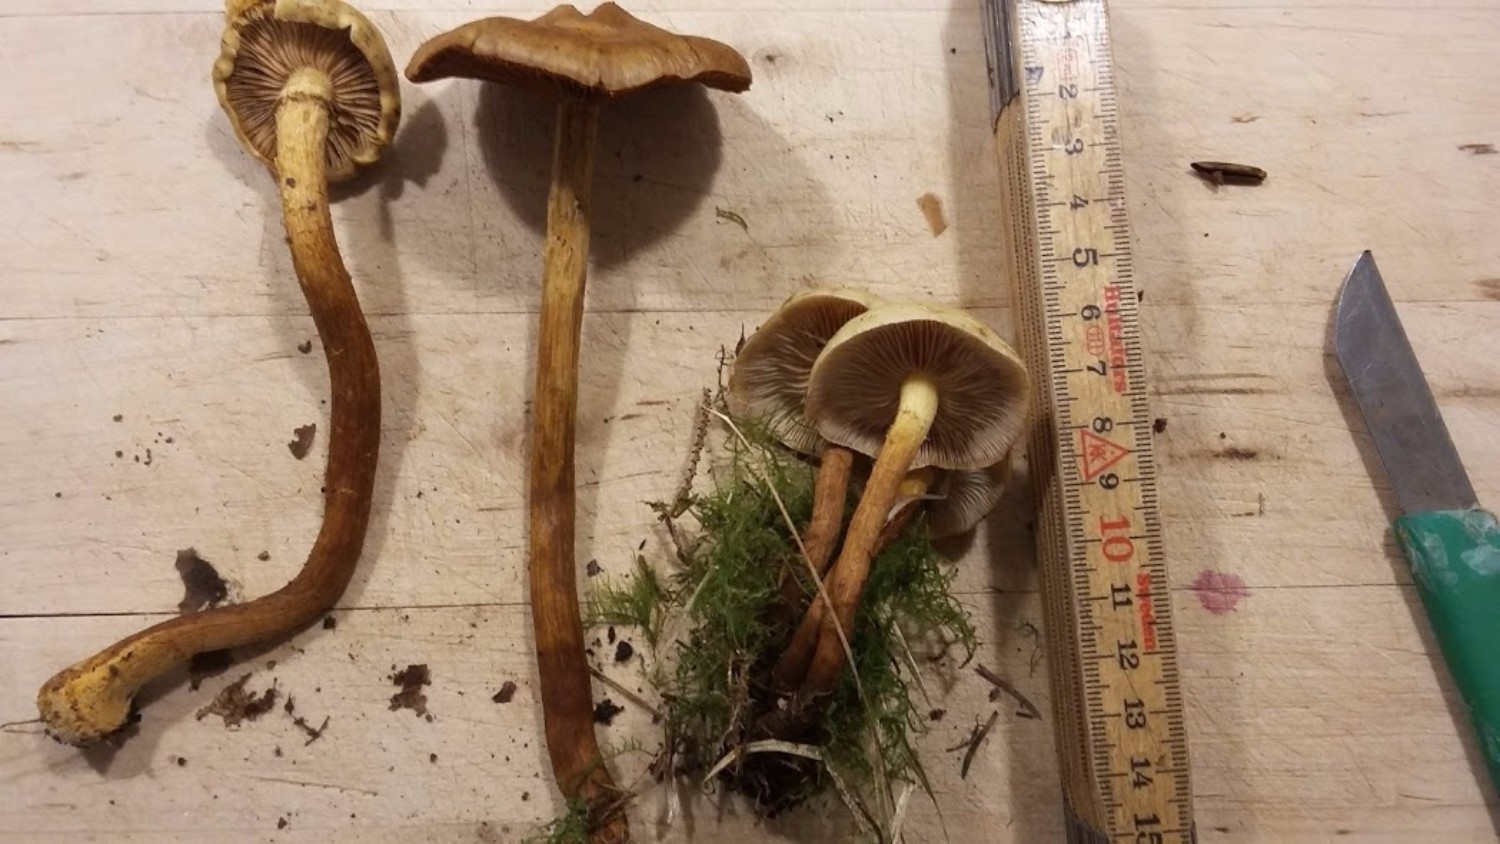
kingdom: Fungi
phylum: Basidiomycota
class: Agaricomycetes
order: Agaricales
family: Strophariaceae
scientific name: Strophariaceae
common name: bredbladfamilien
